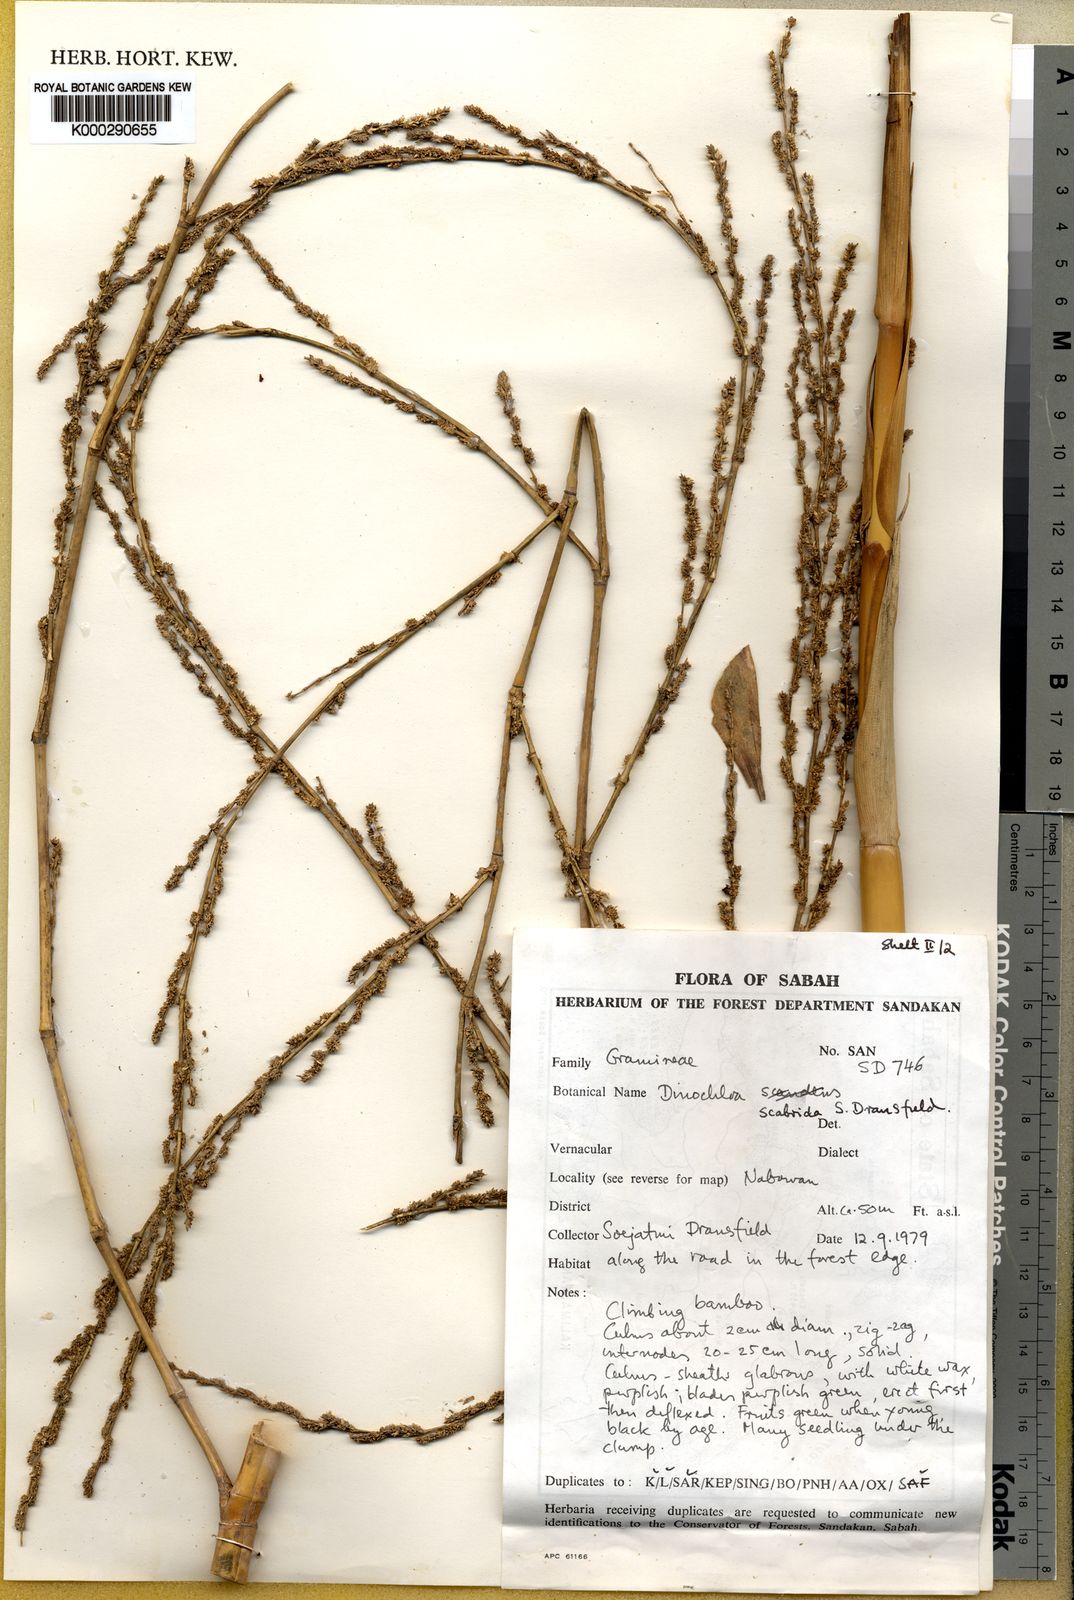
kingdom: Plantae
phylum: Tracheophyta
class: Liliopsida
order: Poales
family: Poaceae
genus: Dinochloa
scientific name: Dinochloa scabrida
